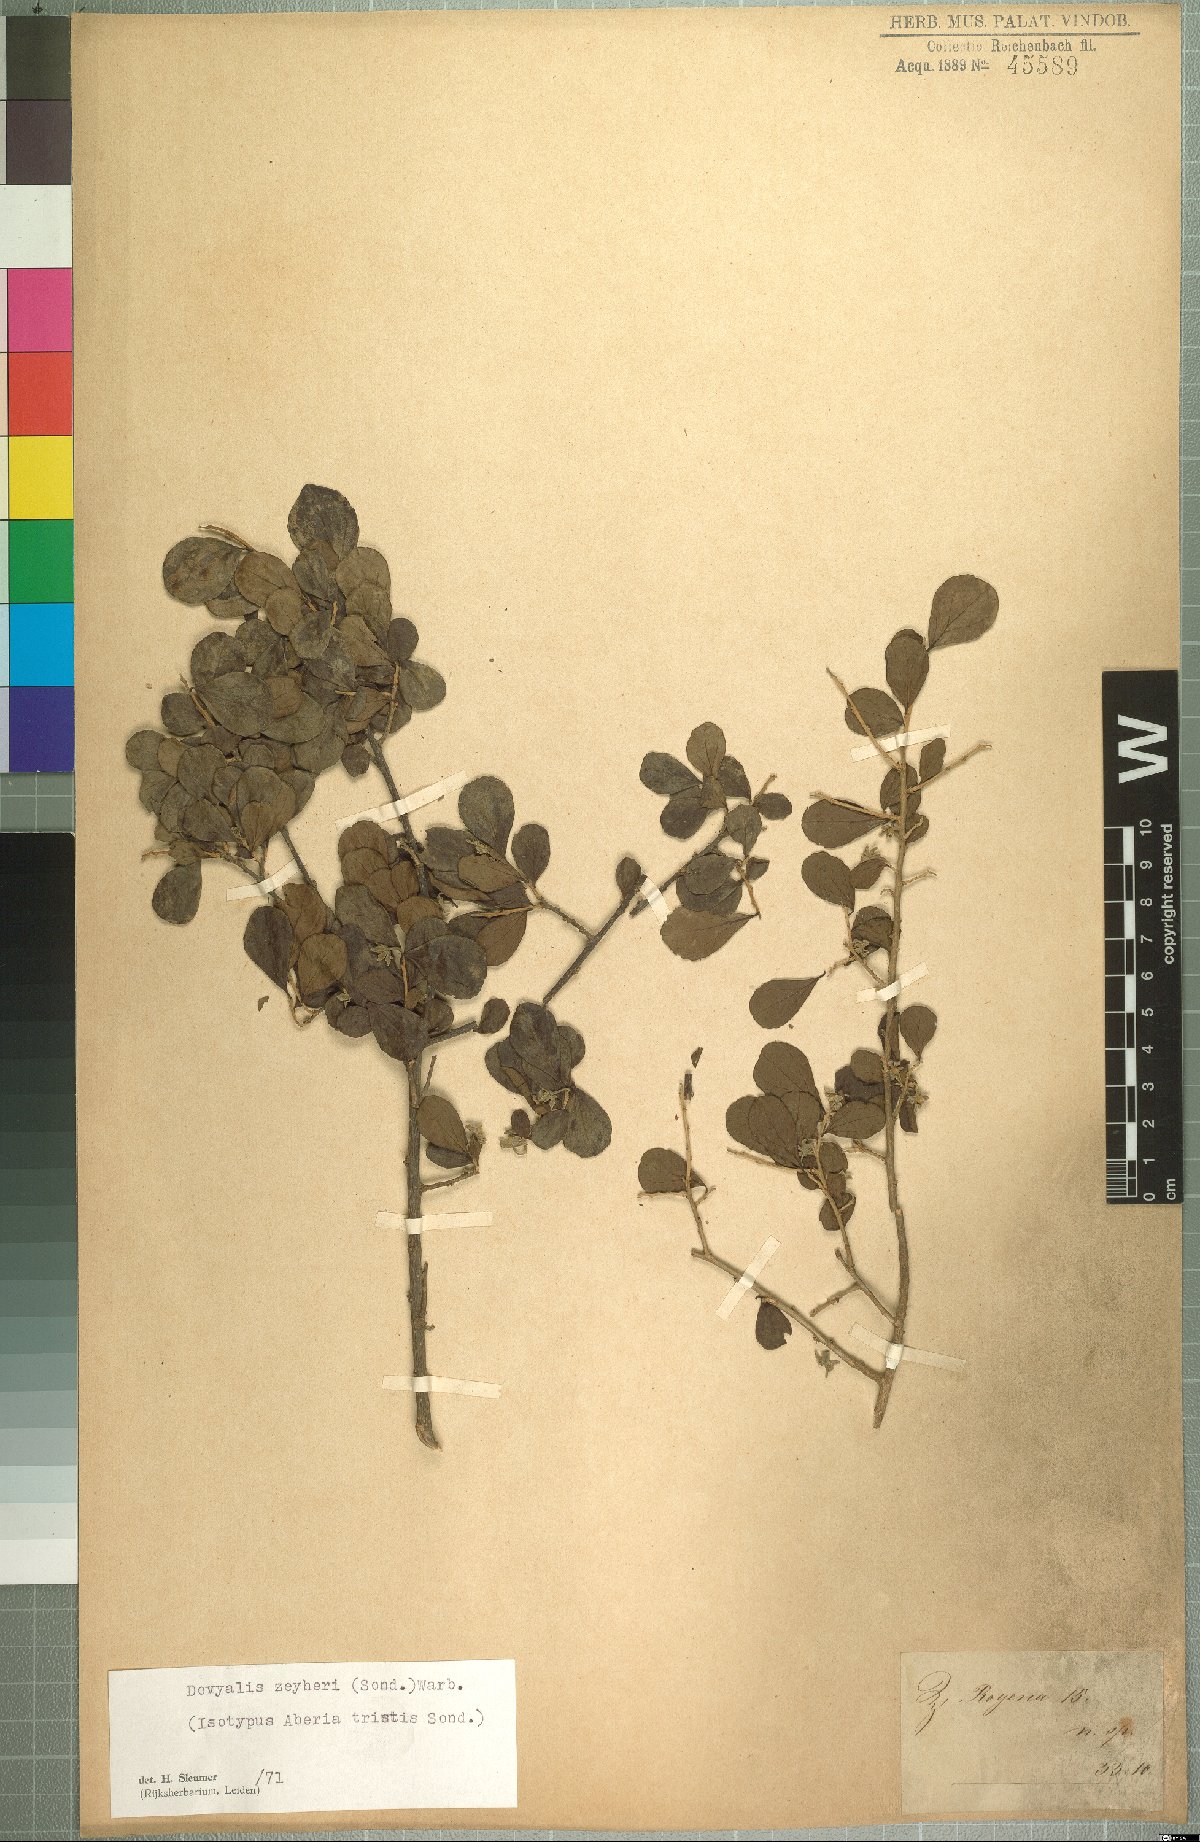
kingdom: Plantae
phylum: Tracheophyta
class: Magnoliopsida
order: Malpighiales
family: Salicaceae
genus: Dovyalis
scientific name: Dovyalis zeyheri
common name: Apricot sourberry
